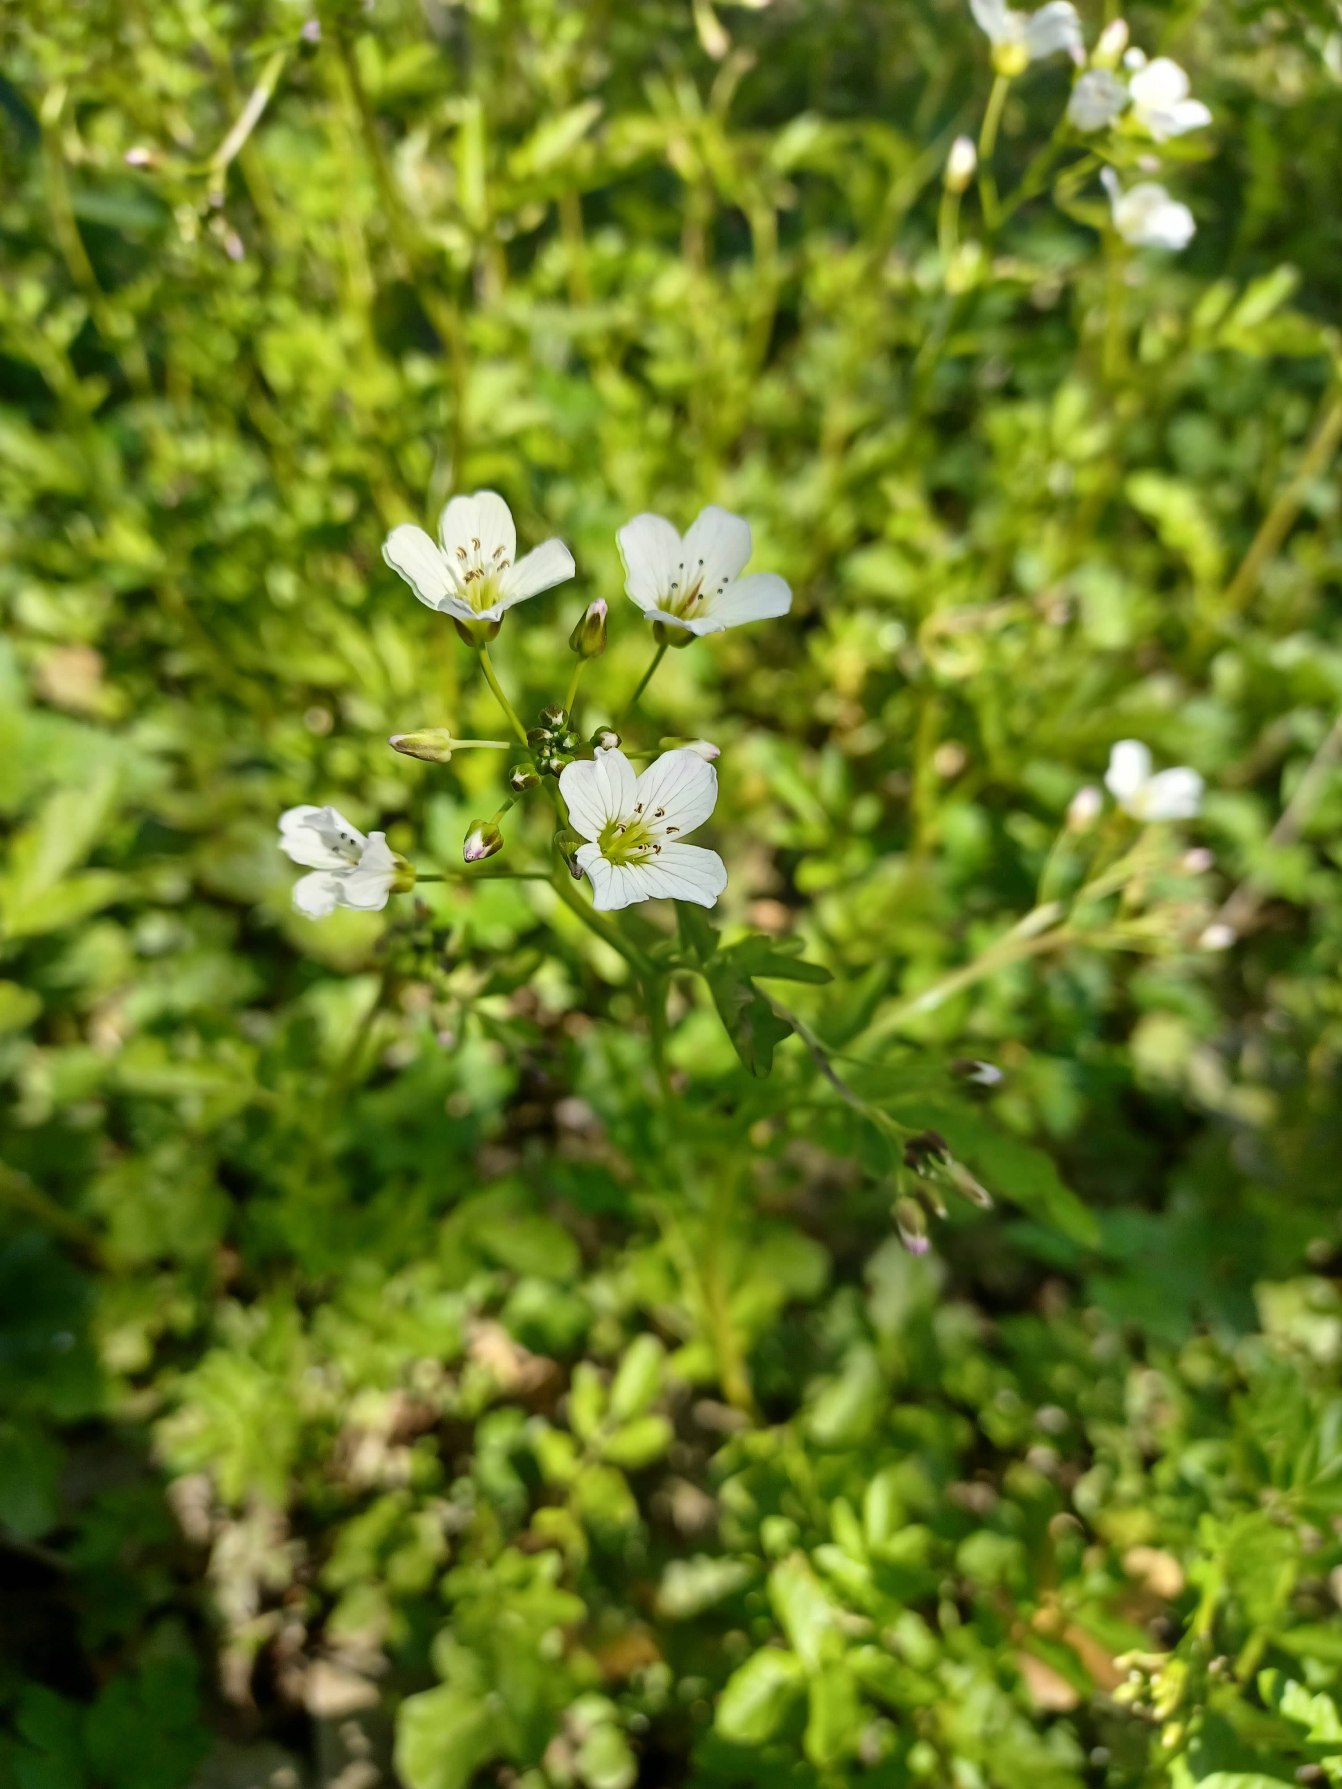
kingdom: Plantae
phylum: Tracheophyta
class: Magnoliopsida
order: Brassicales
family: Brassicaceae
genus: Cardamine
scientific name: Cardamine amara
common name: Vandkarse
